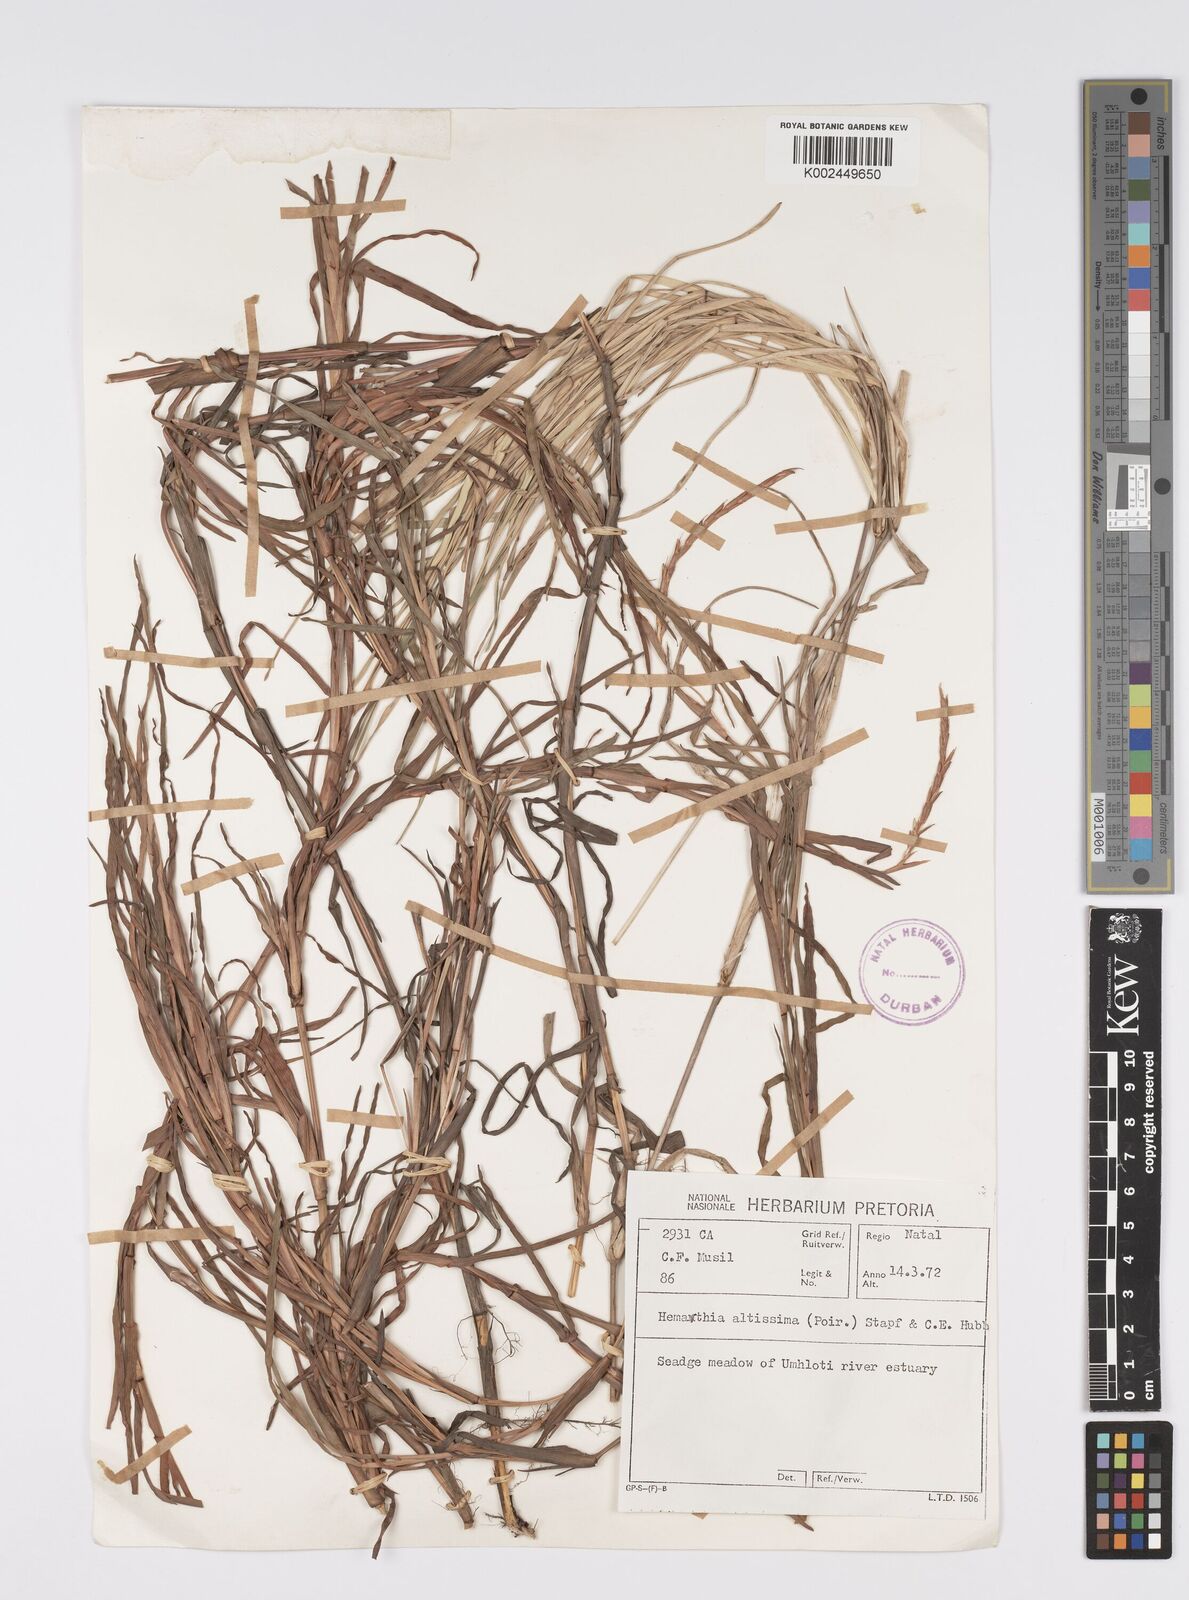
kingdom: Plantae
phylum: Tracheophyta
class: Liliopsida
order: Poales
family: Poaceae
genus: Hemarthria
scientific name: Hemarthria altissima
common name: African jointgrass
